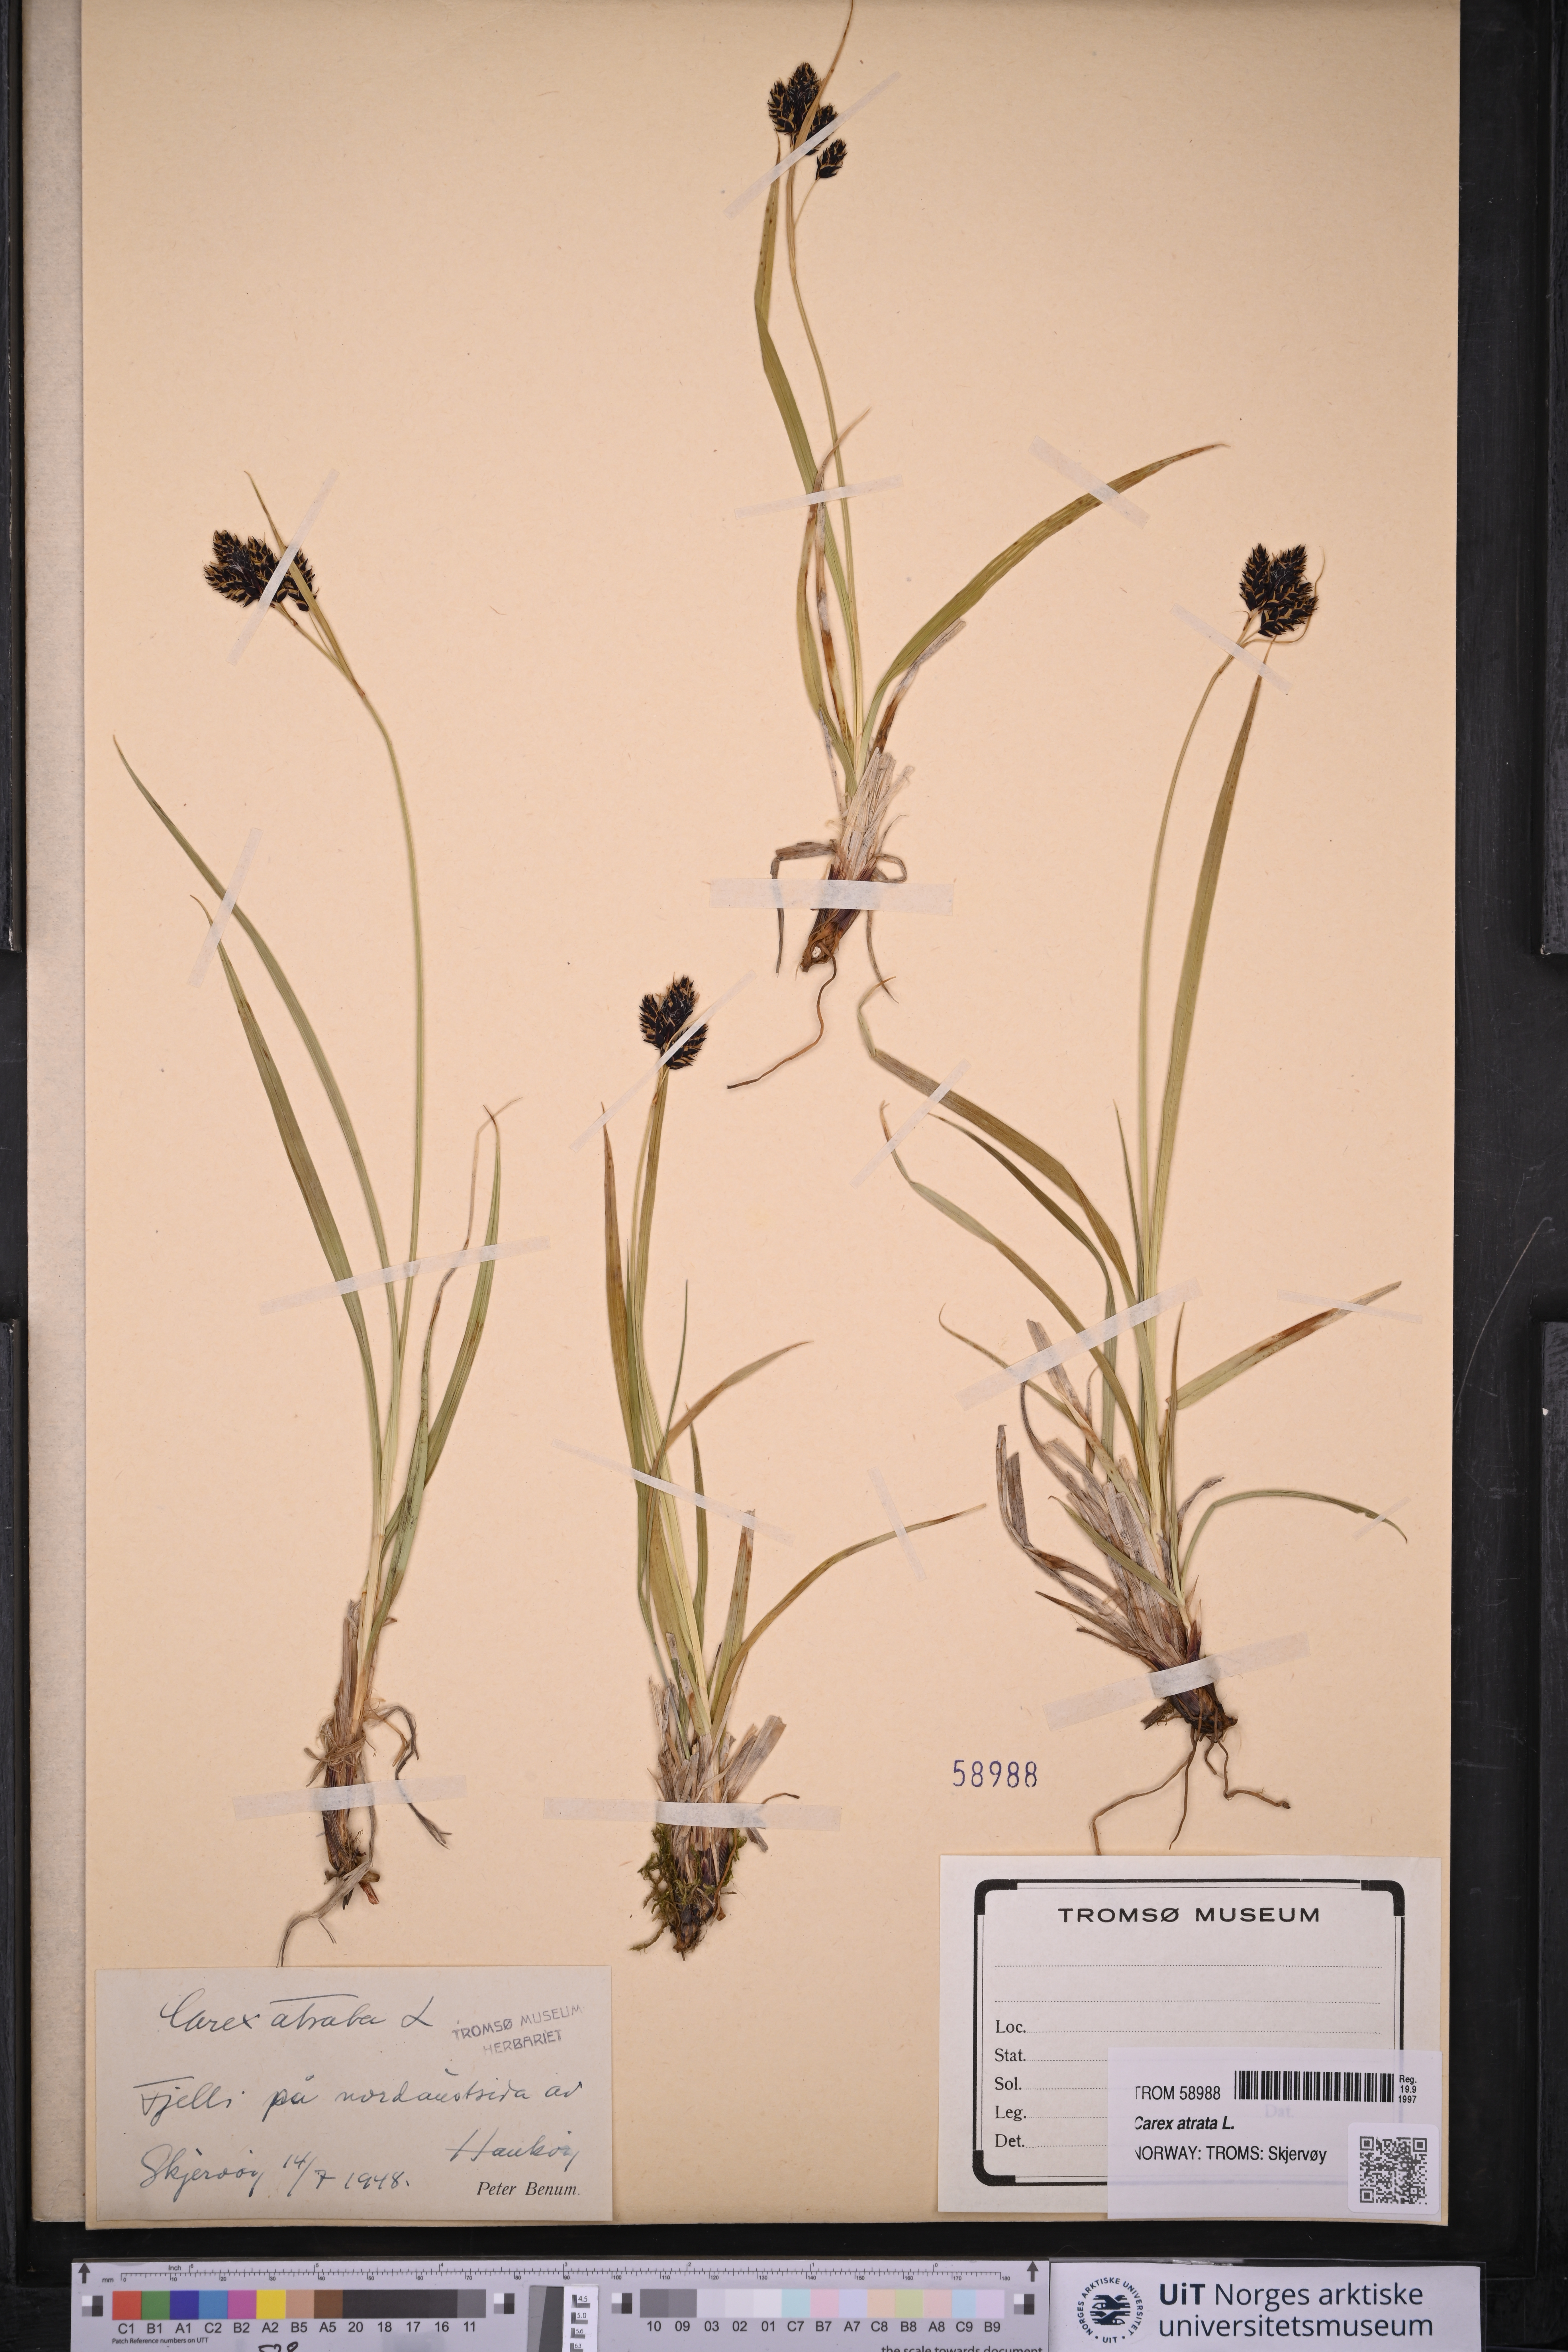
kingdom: Plantae
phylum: Tracheophyta
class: Liliopsida
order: Poales
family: Cyperaceae
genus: Carex
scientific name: Carex atrata
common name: Black alpine sedge
